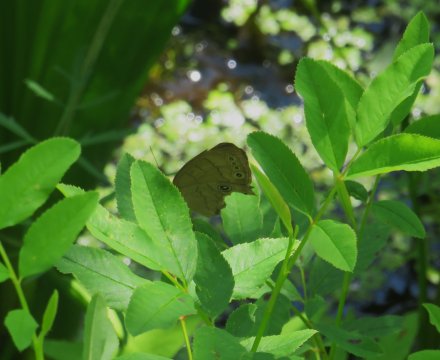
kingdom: Animalia
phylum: Arthropoda
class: Insecta
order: Lepidoptera
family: Nymphalidae
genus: Lethe
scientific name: Lethe eurydice
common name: Eyed Brown
